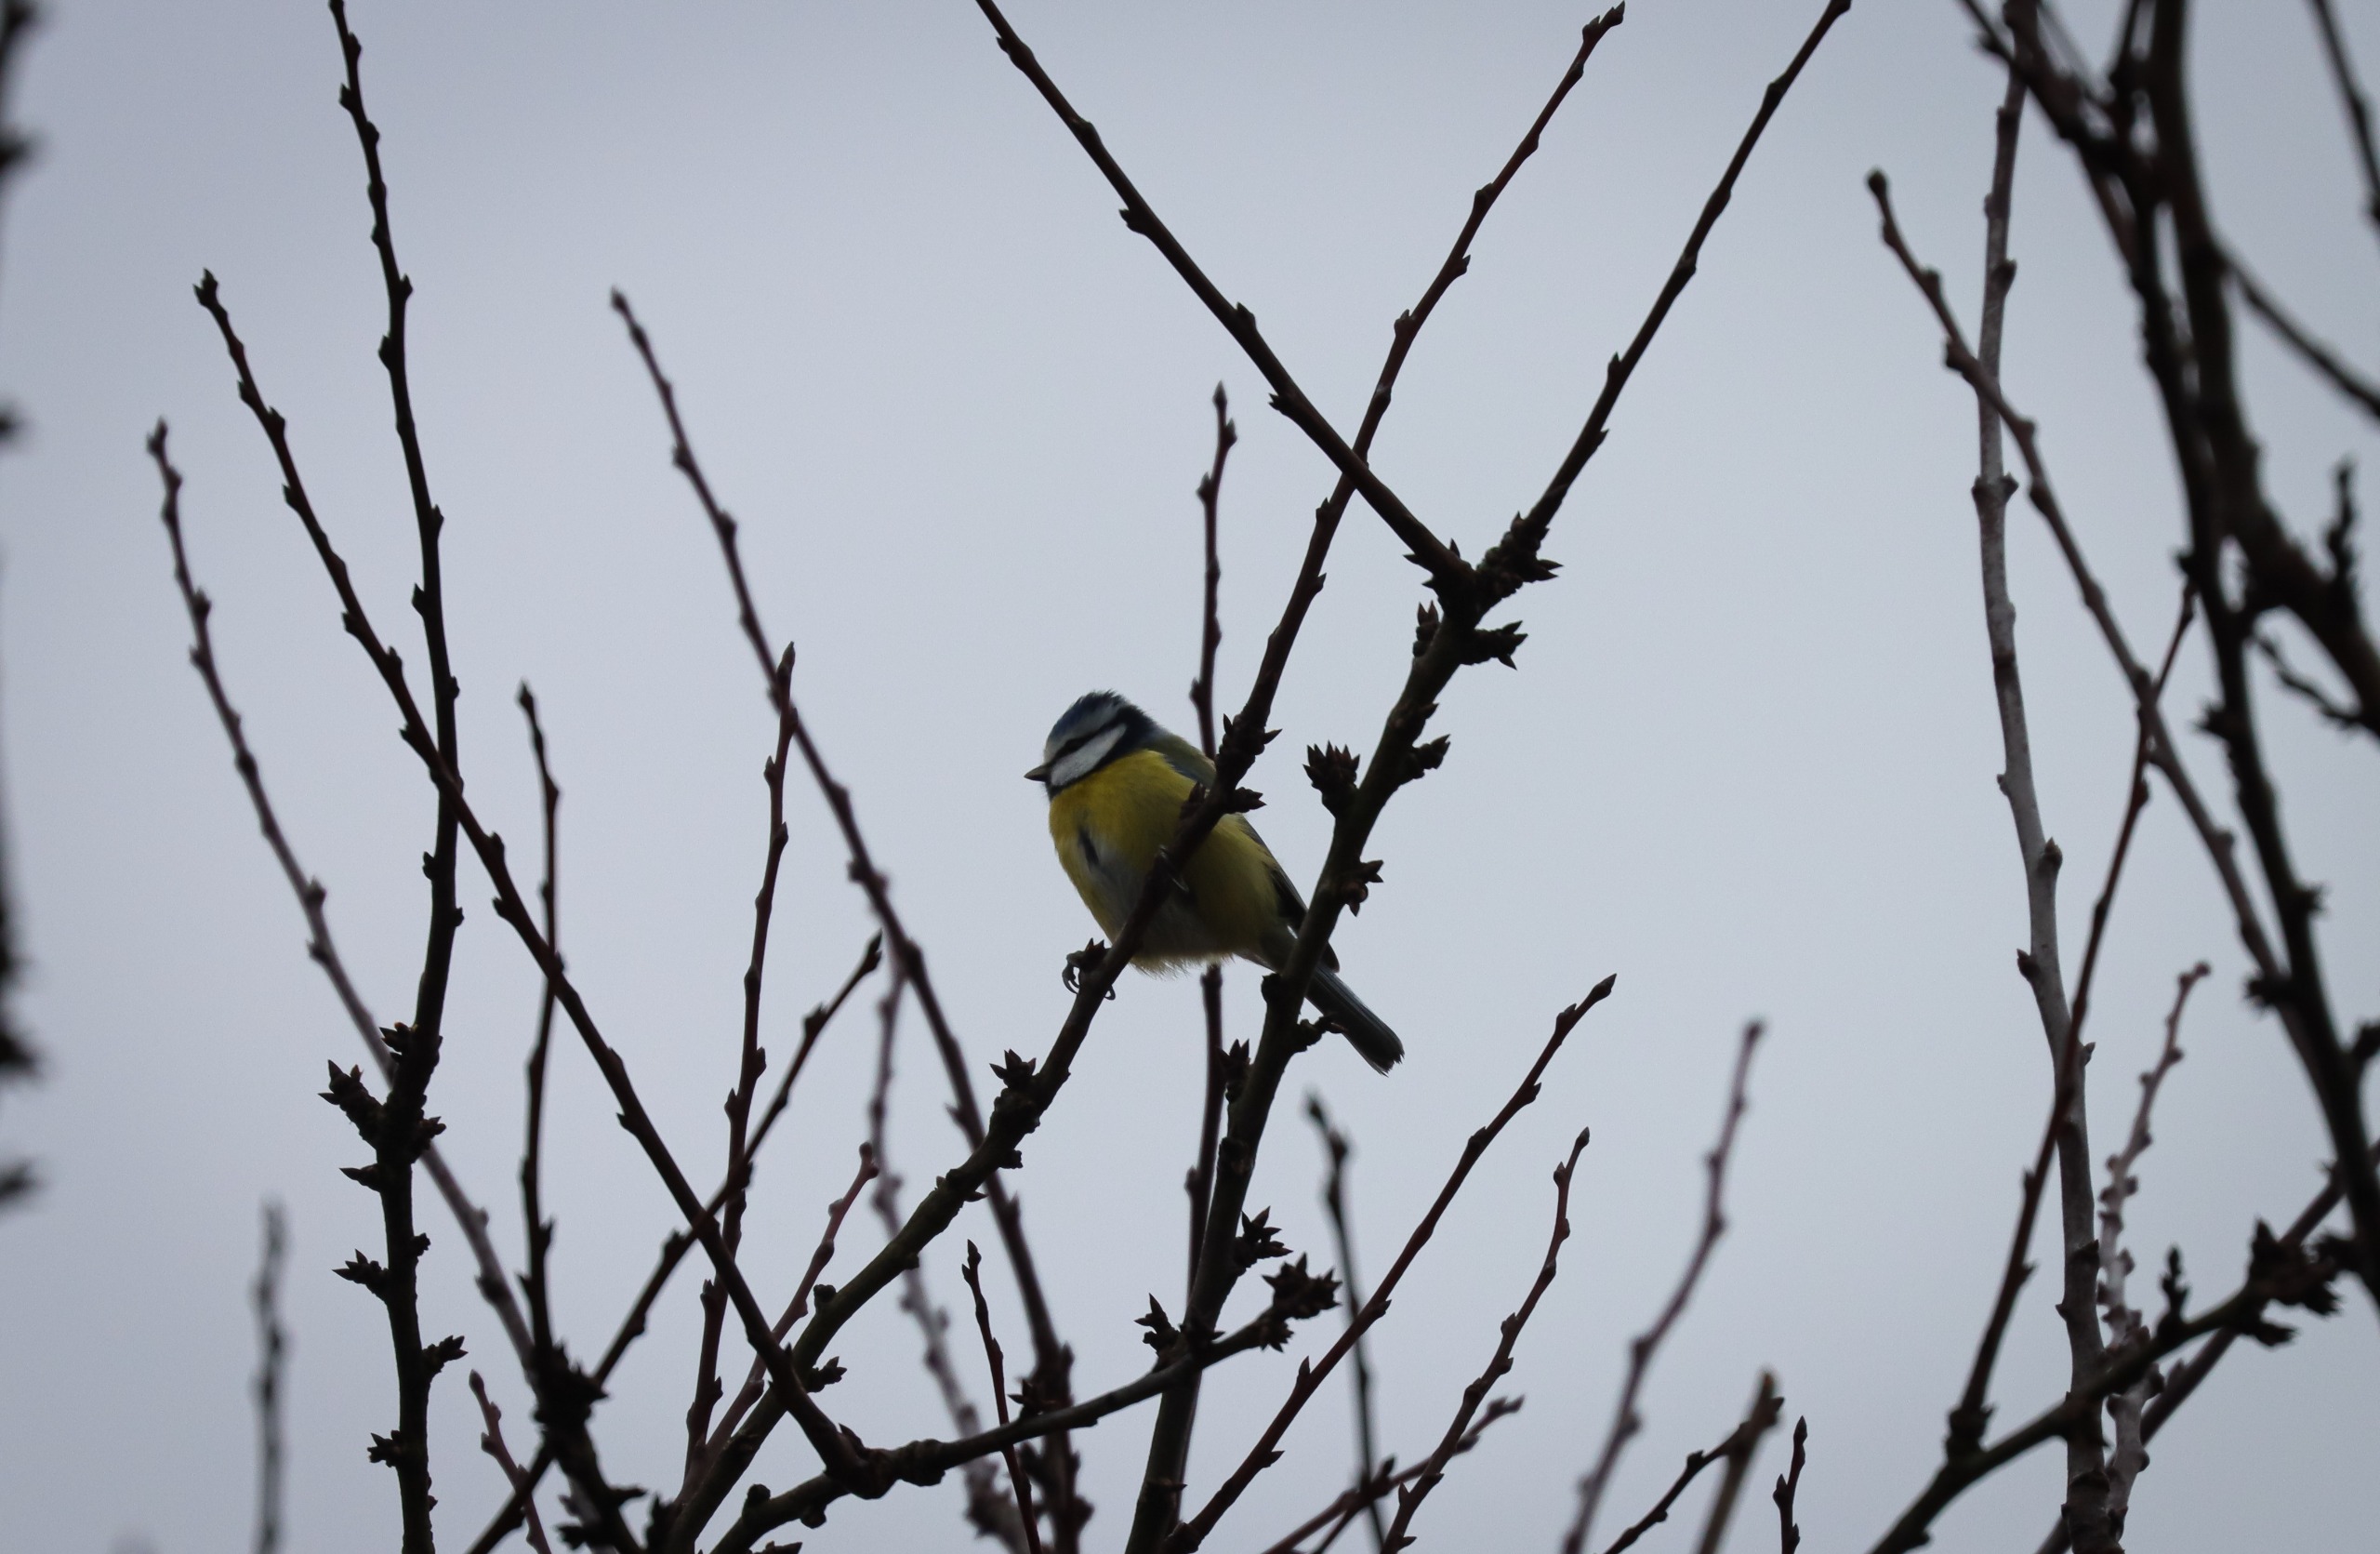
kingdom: Animalia
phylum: Chordata
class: Aves
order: Passeriformes
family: Paridae
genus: Cyanistes
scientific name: Cyanistes caeruleus
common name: Blåmejse
